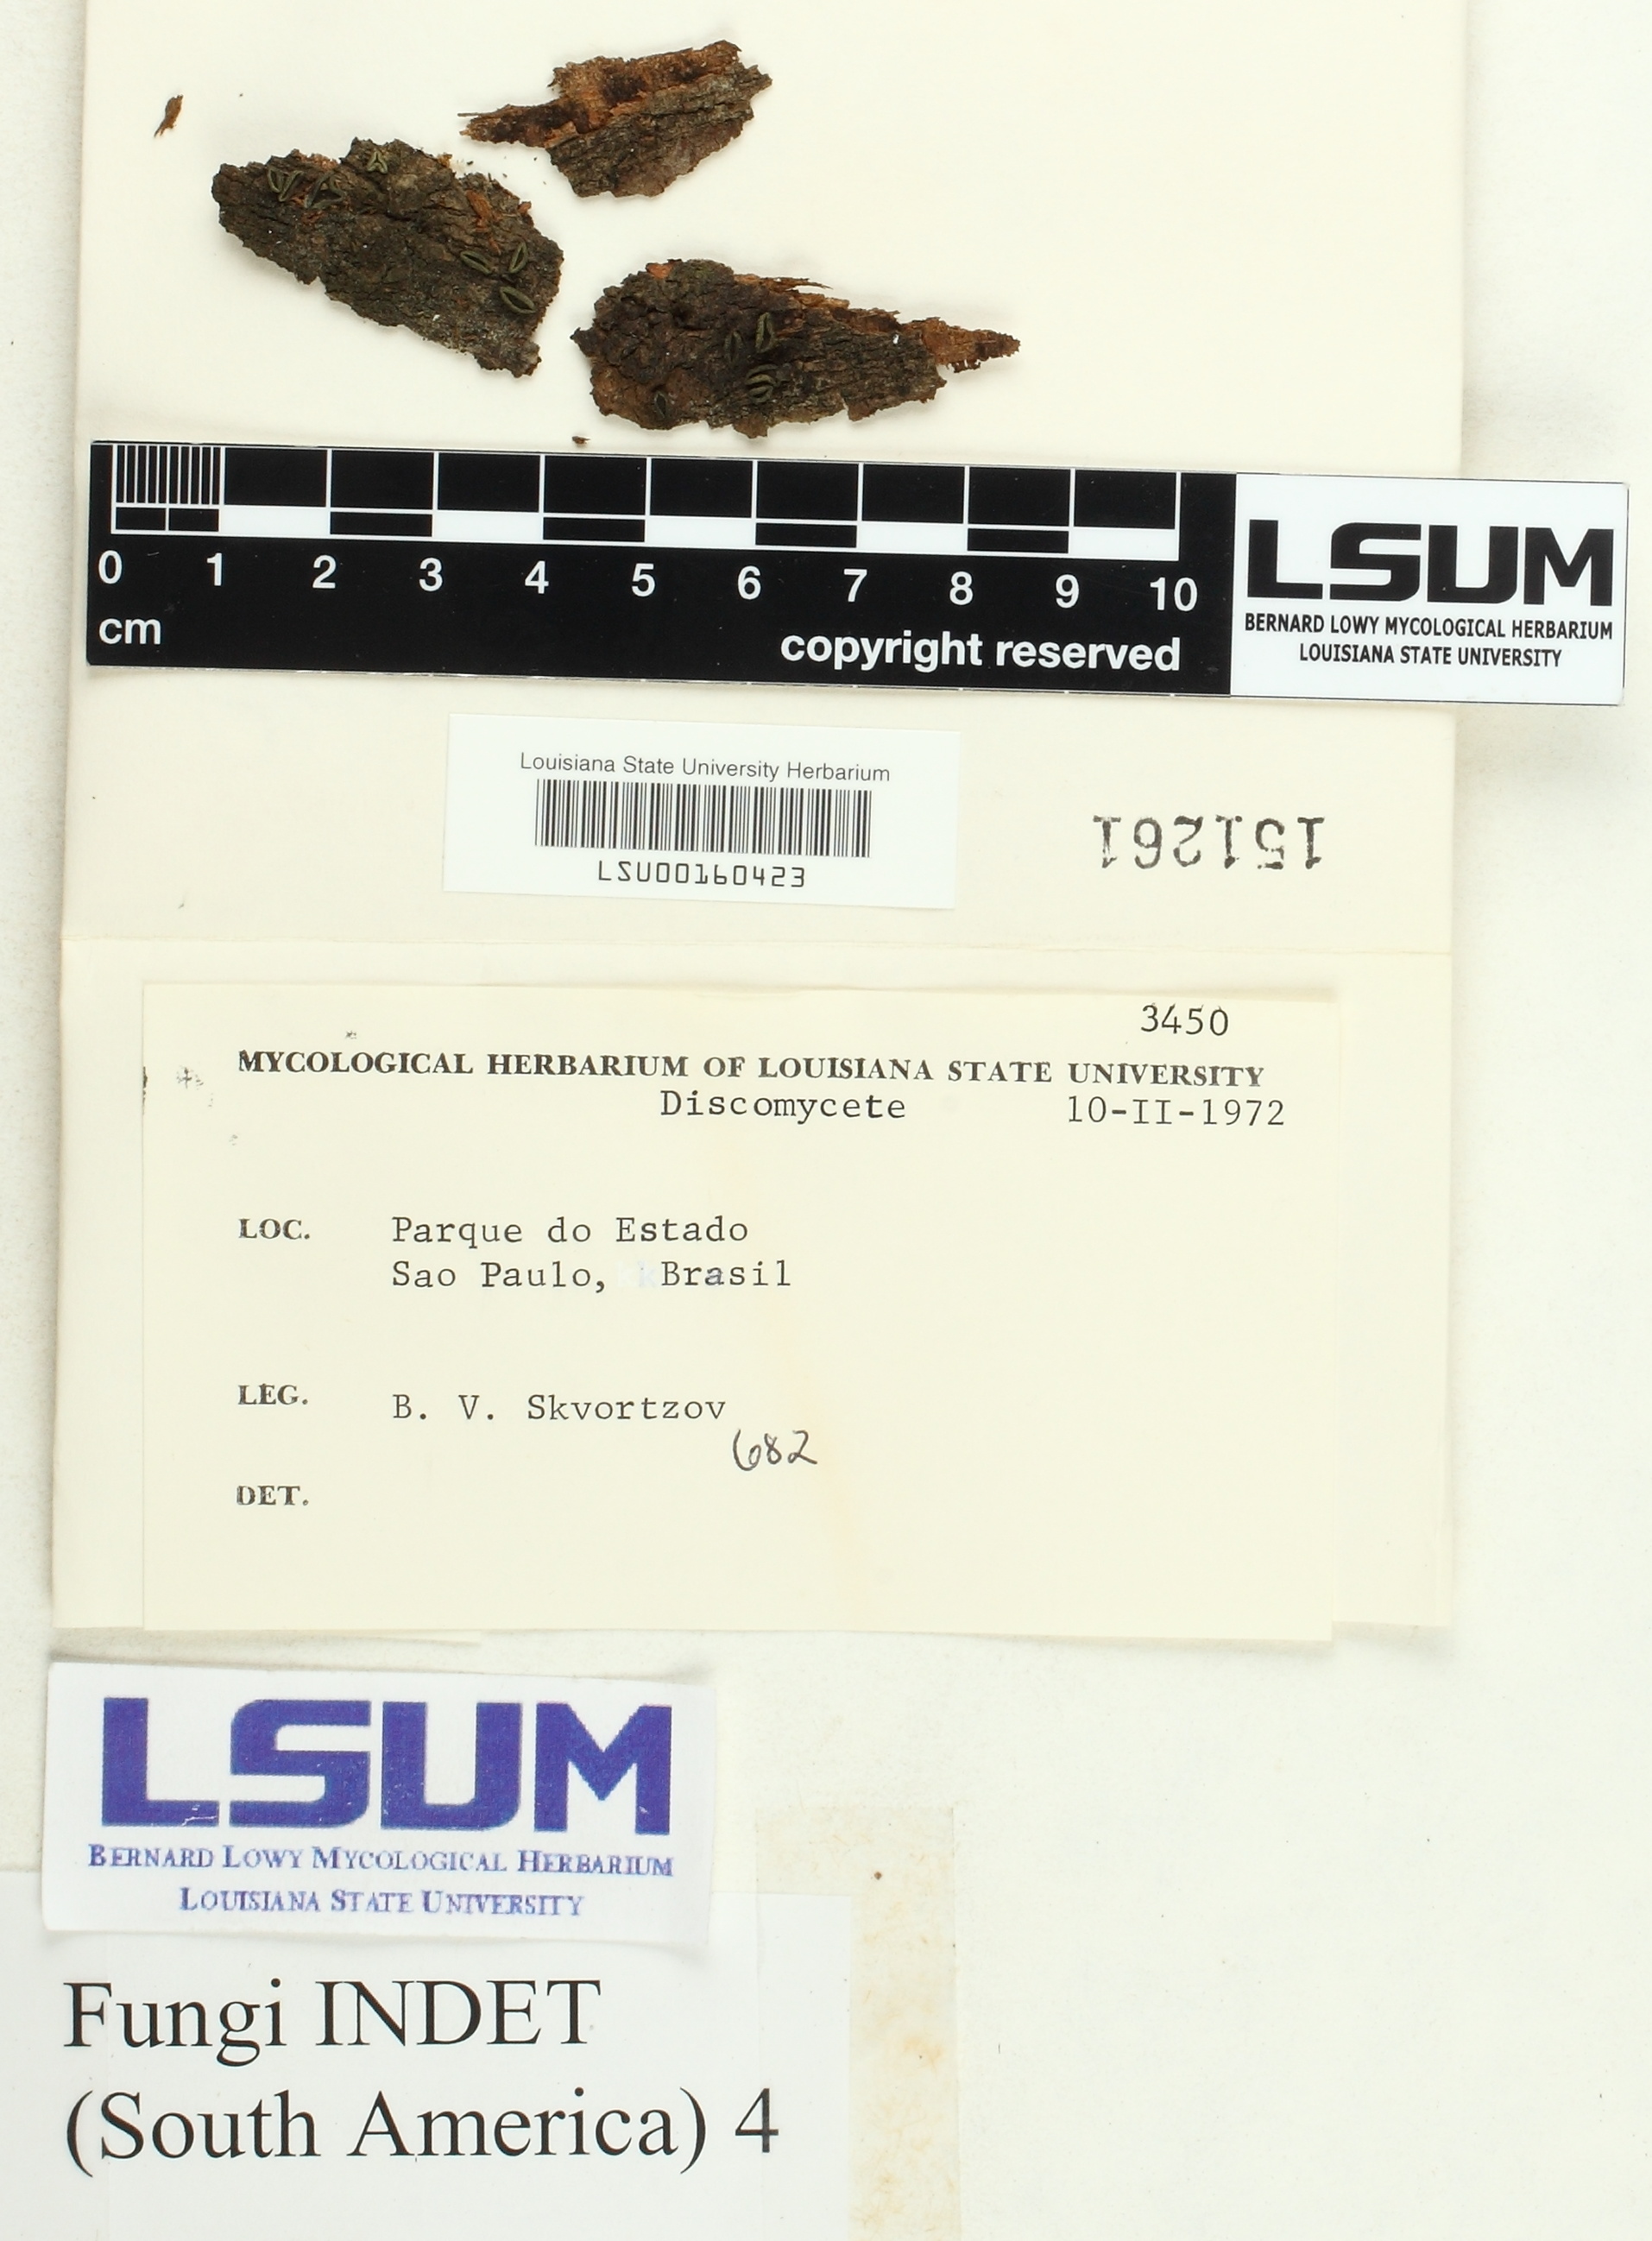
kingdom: Fungi
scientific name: Fungi
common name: Fungi
